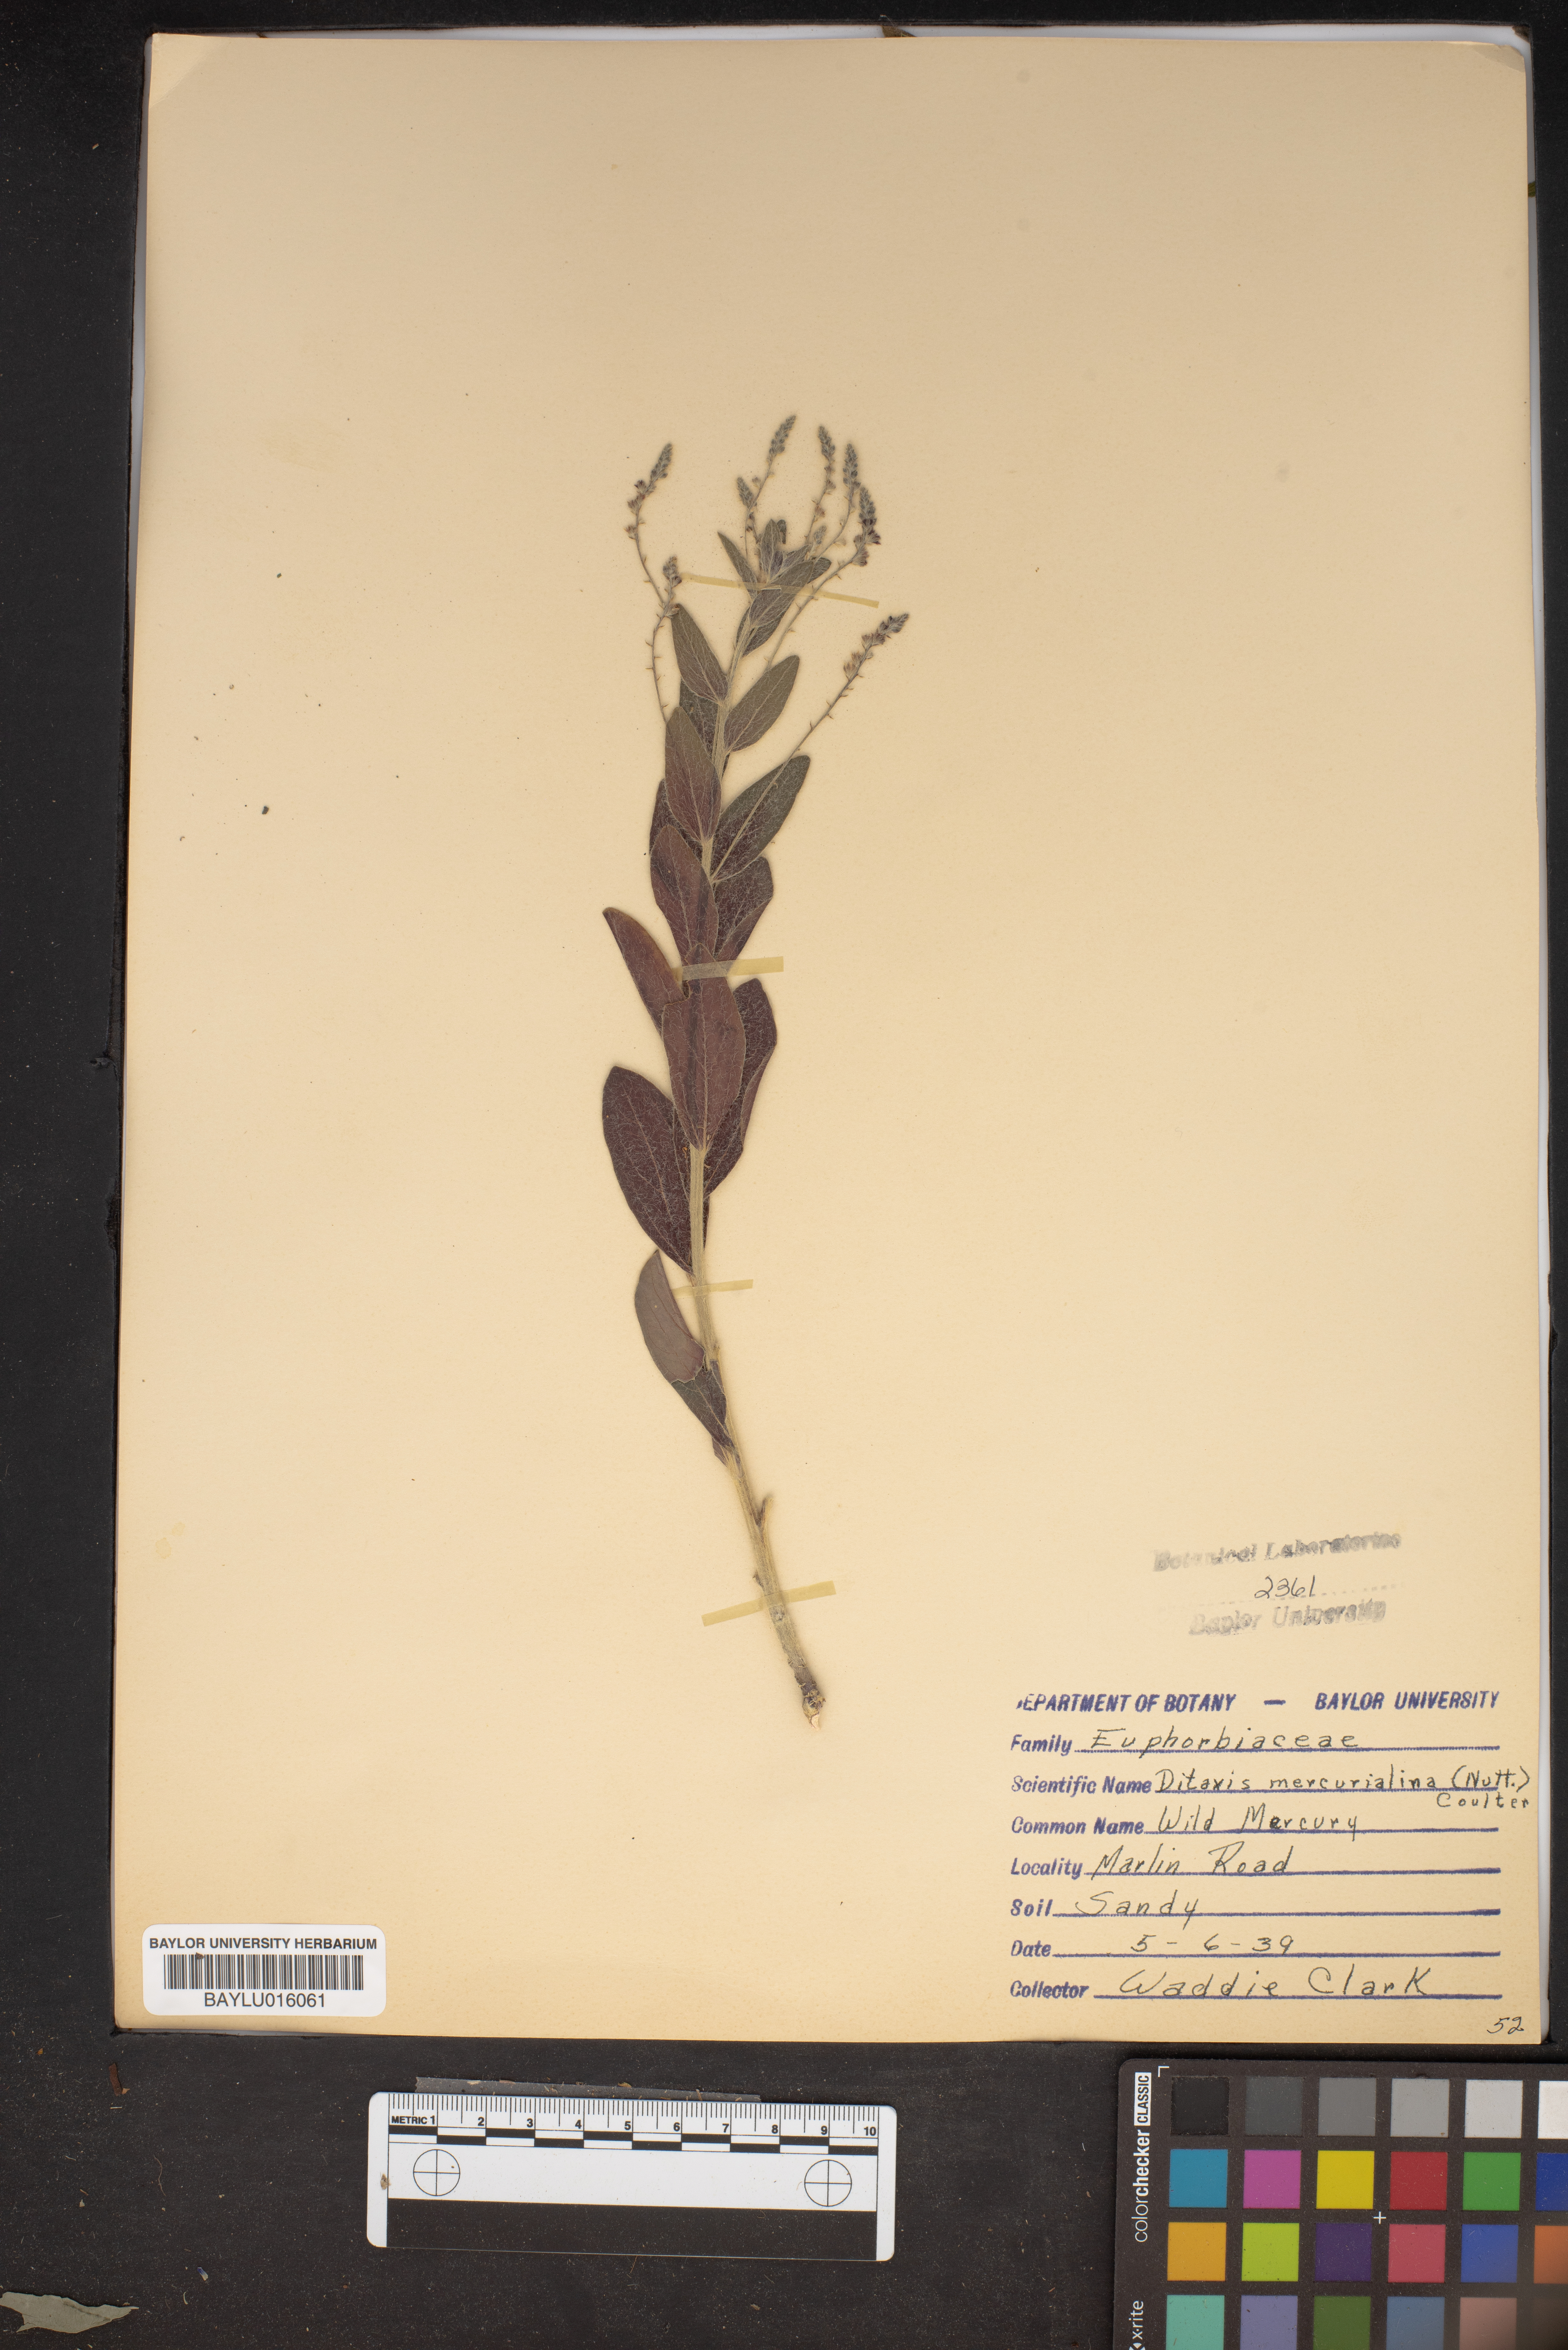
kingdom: Plantae
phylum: Tracheophyta
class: Magnoliopsida
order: Malpighiales
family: Euphorbiaceae
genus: Ditaxis
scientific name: Ditaxis mercurialina
